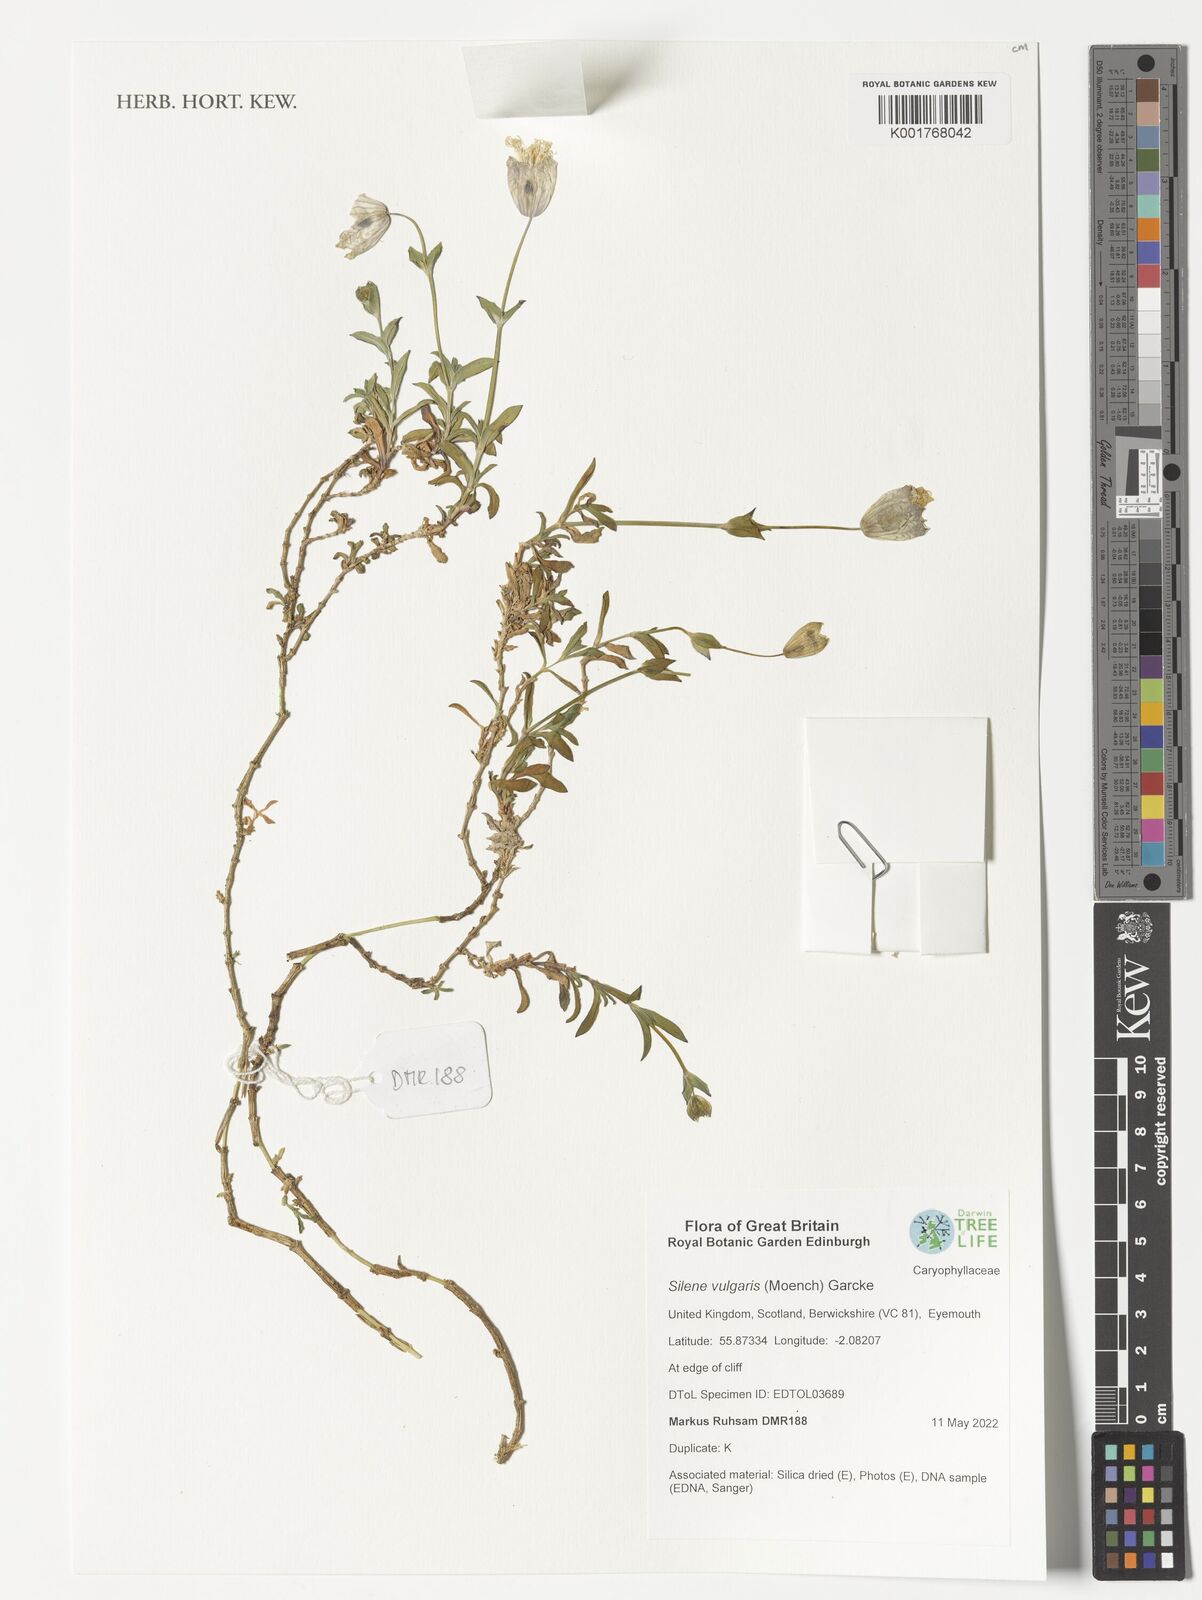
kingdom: Plantae
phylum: Tracheophyta
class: Magnoliopsida
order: Caryophyllales
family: Caryophyllaceae
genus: Silene
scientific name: Silene vulgaris
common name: Bladder campion
